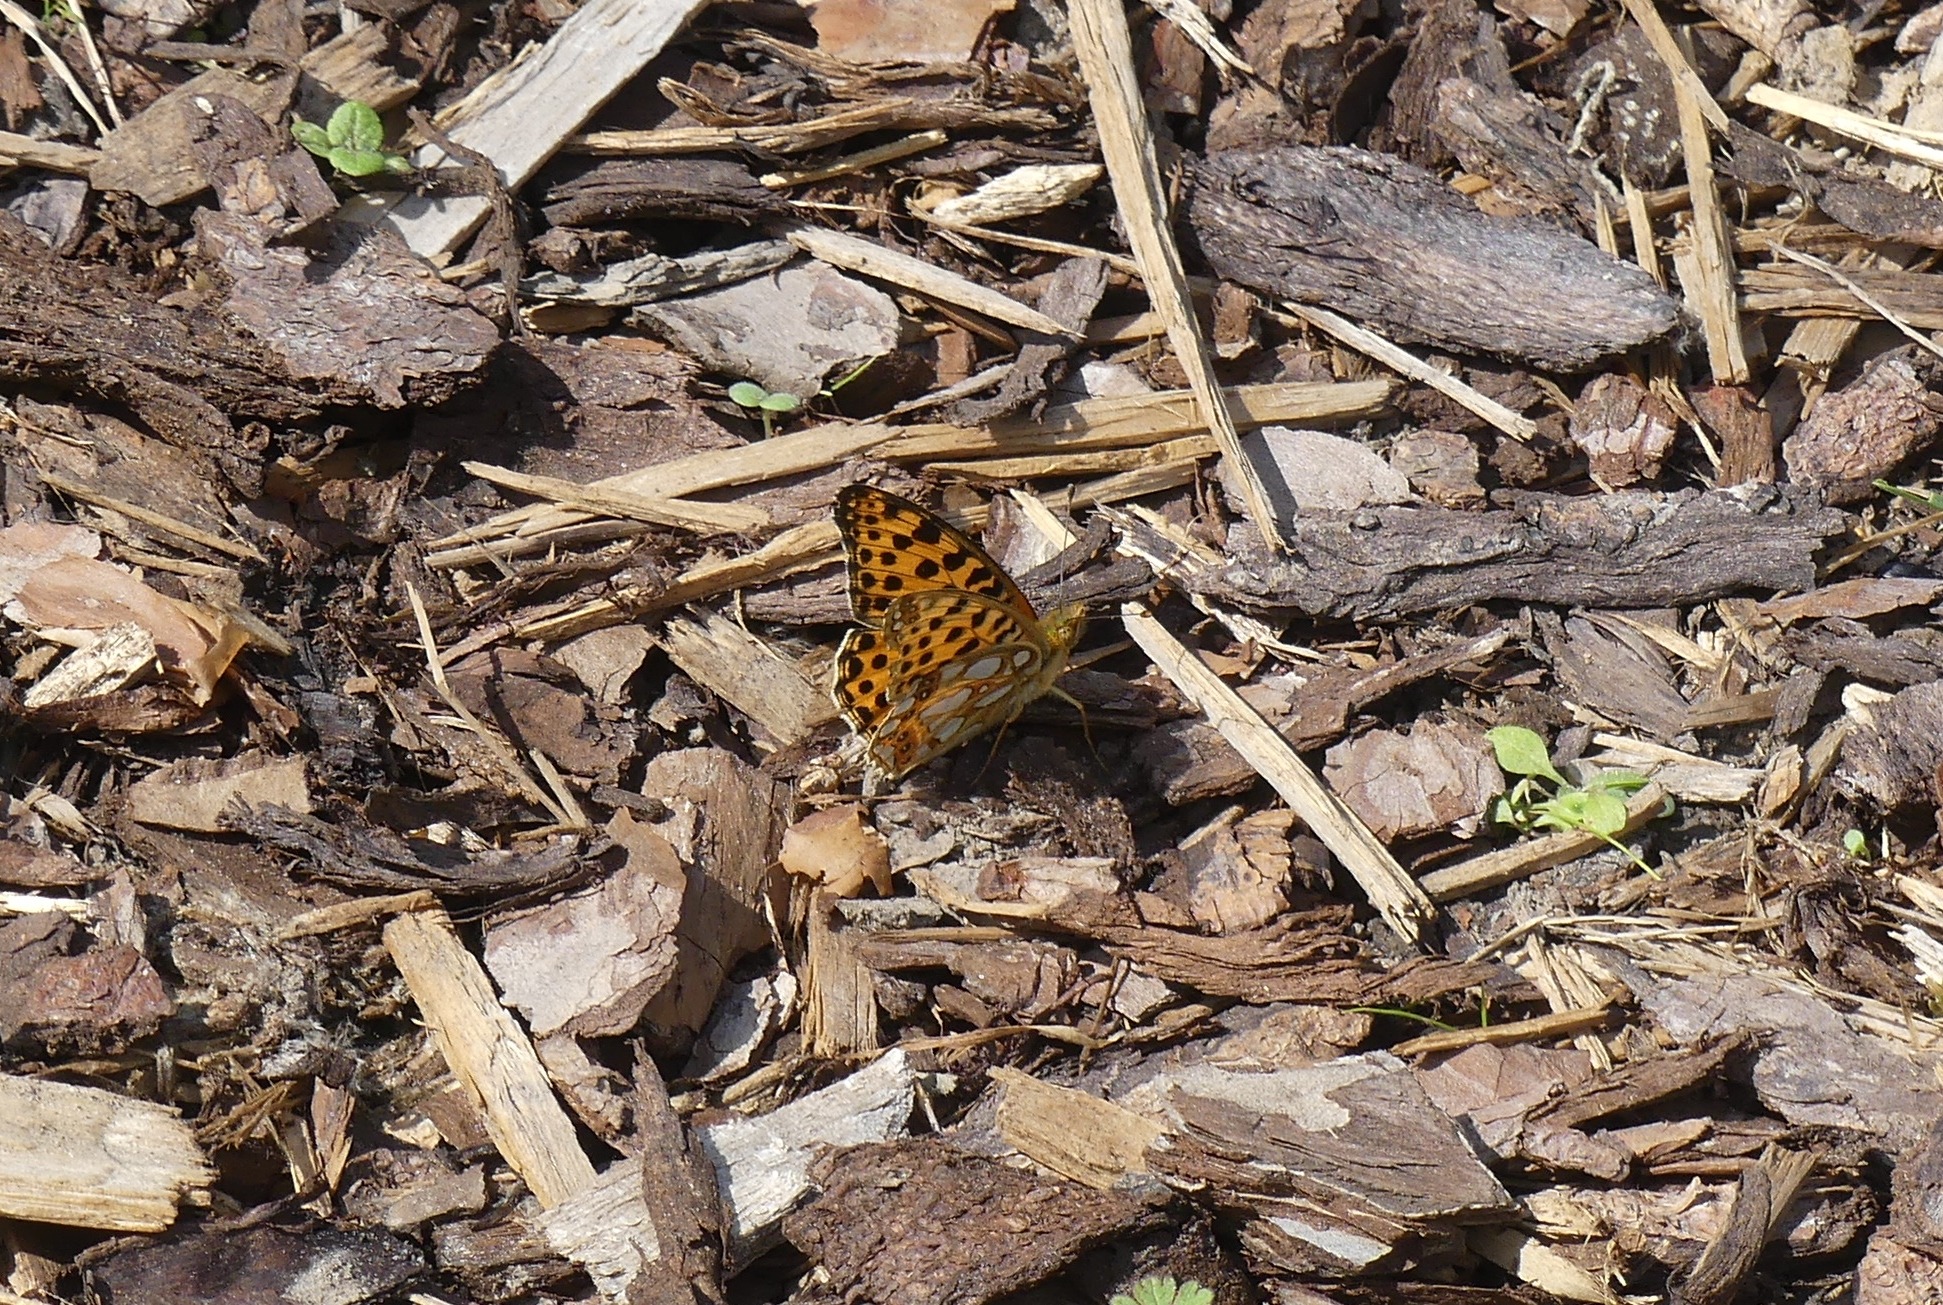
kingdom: Animalia
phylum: Arthropoda
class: Insecta
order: Lepidoptera
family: Nymphalidae
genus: Issoria
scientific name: Issoria lathonia
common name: Storplettet perlemorsommerfugl
